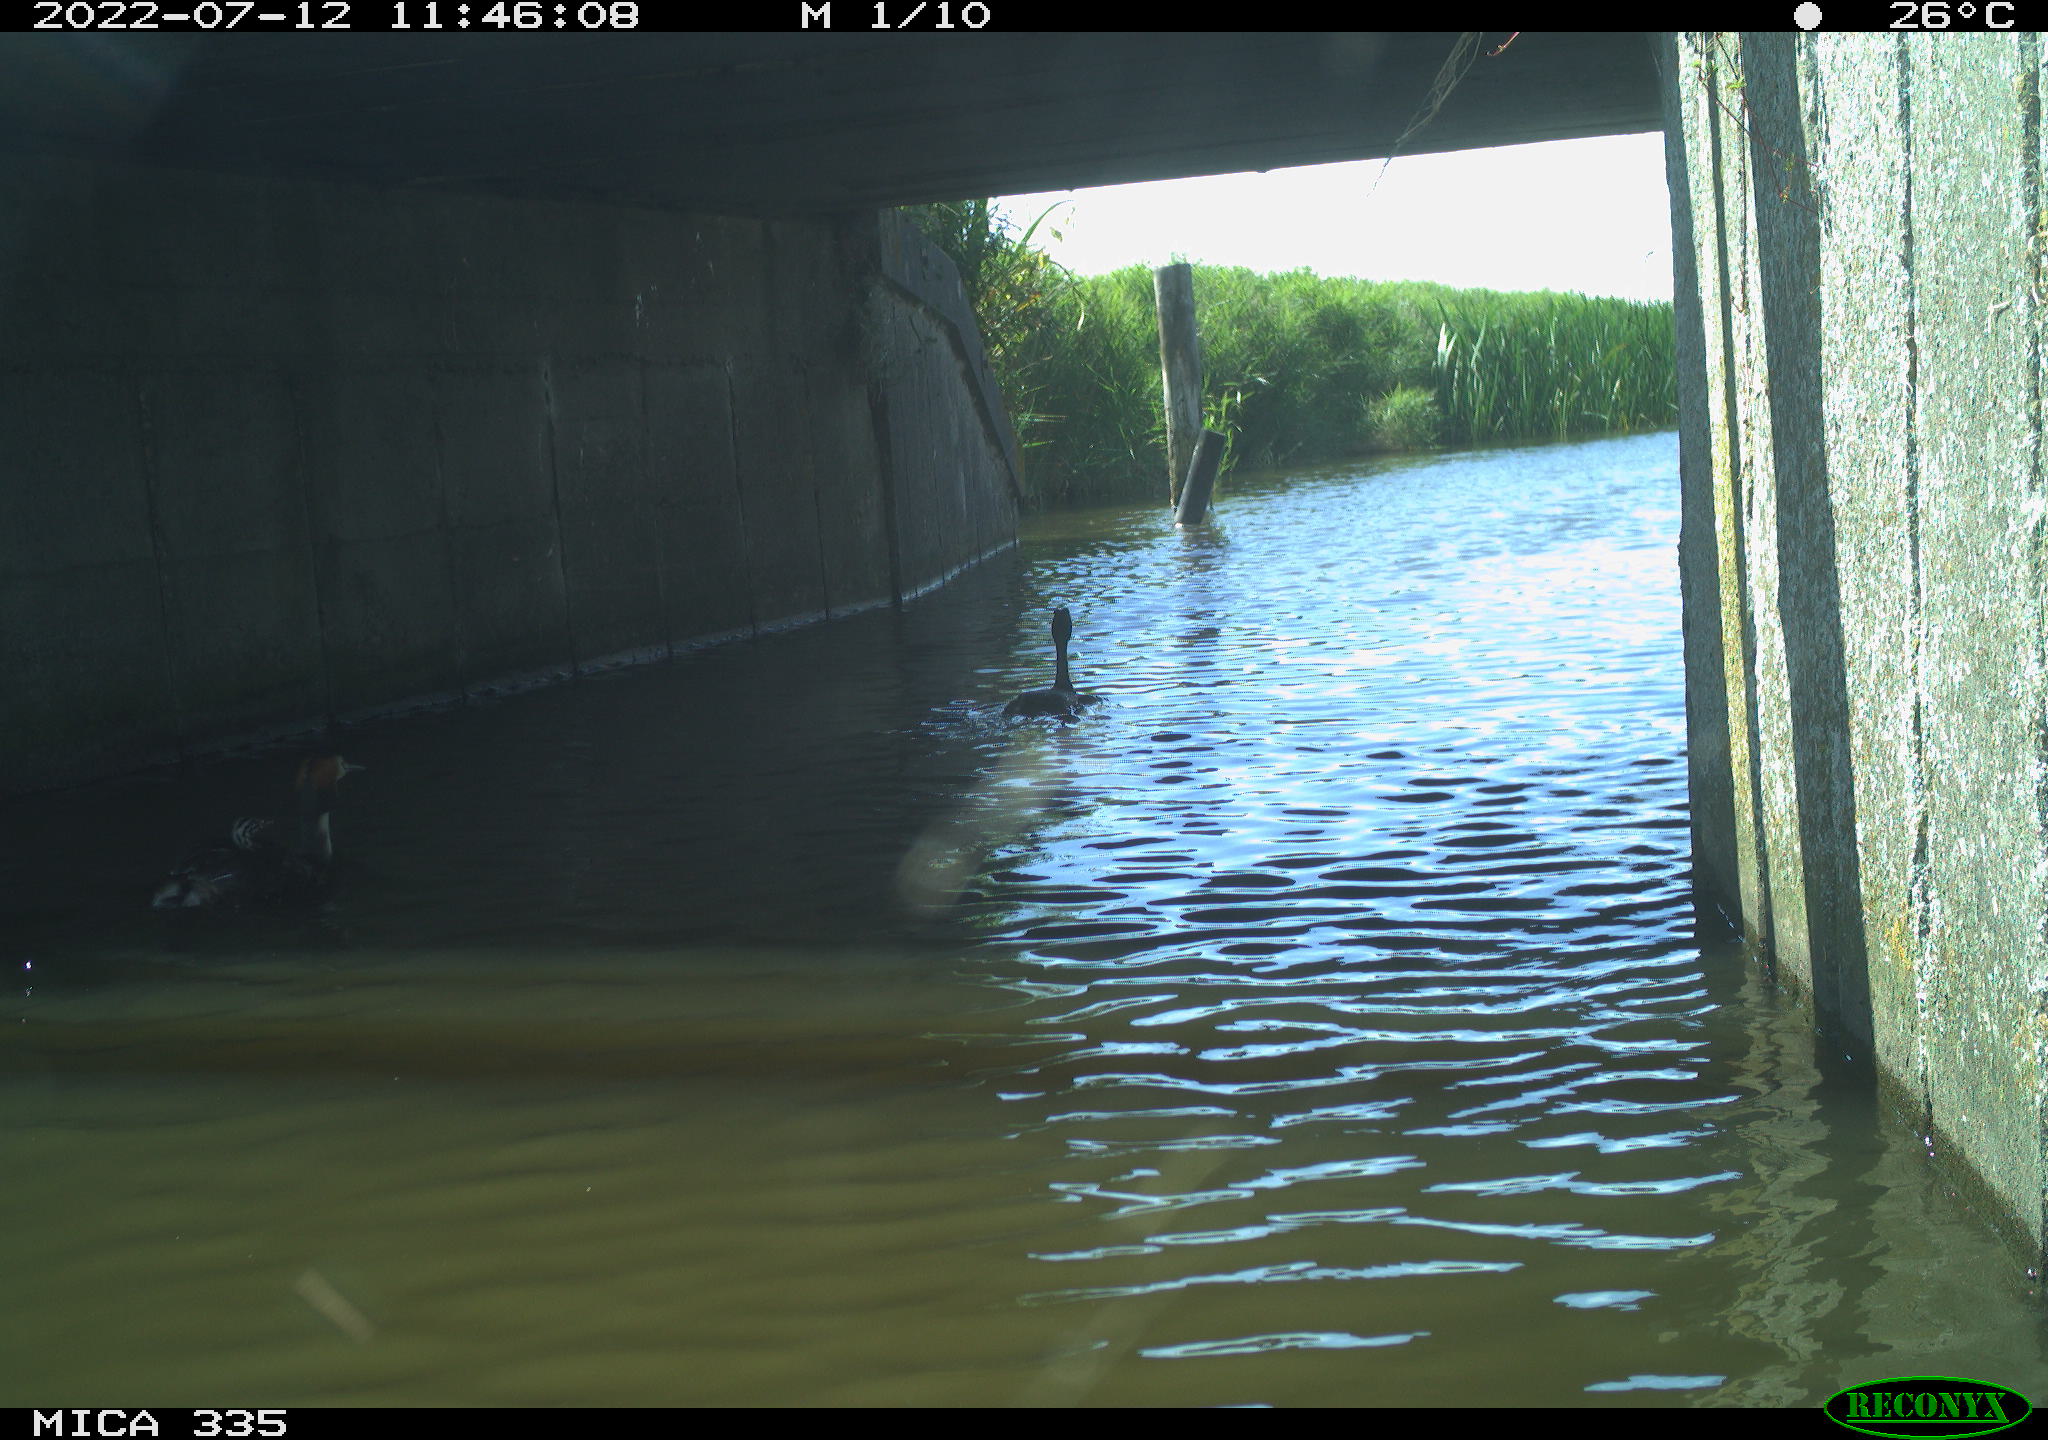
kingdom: Animalia
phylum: Chordata
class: Aves
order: Podicipediformes
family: Podicipedidae
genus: Podiceps
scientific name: Podiceps cristatus
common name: Great crested grebe
